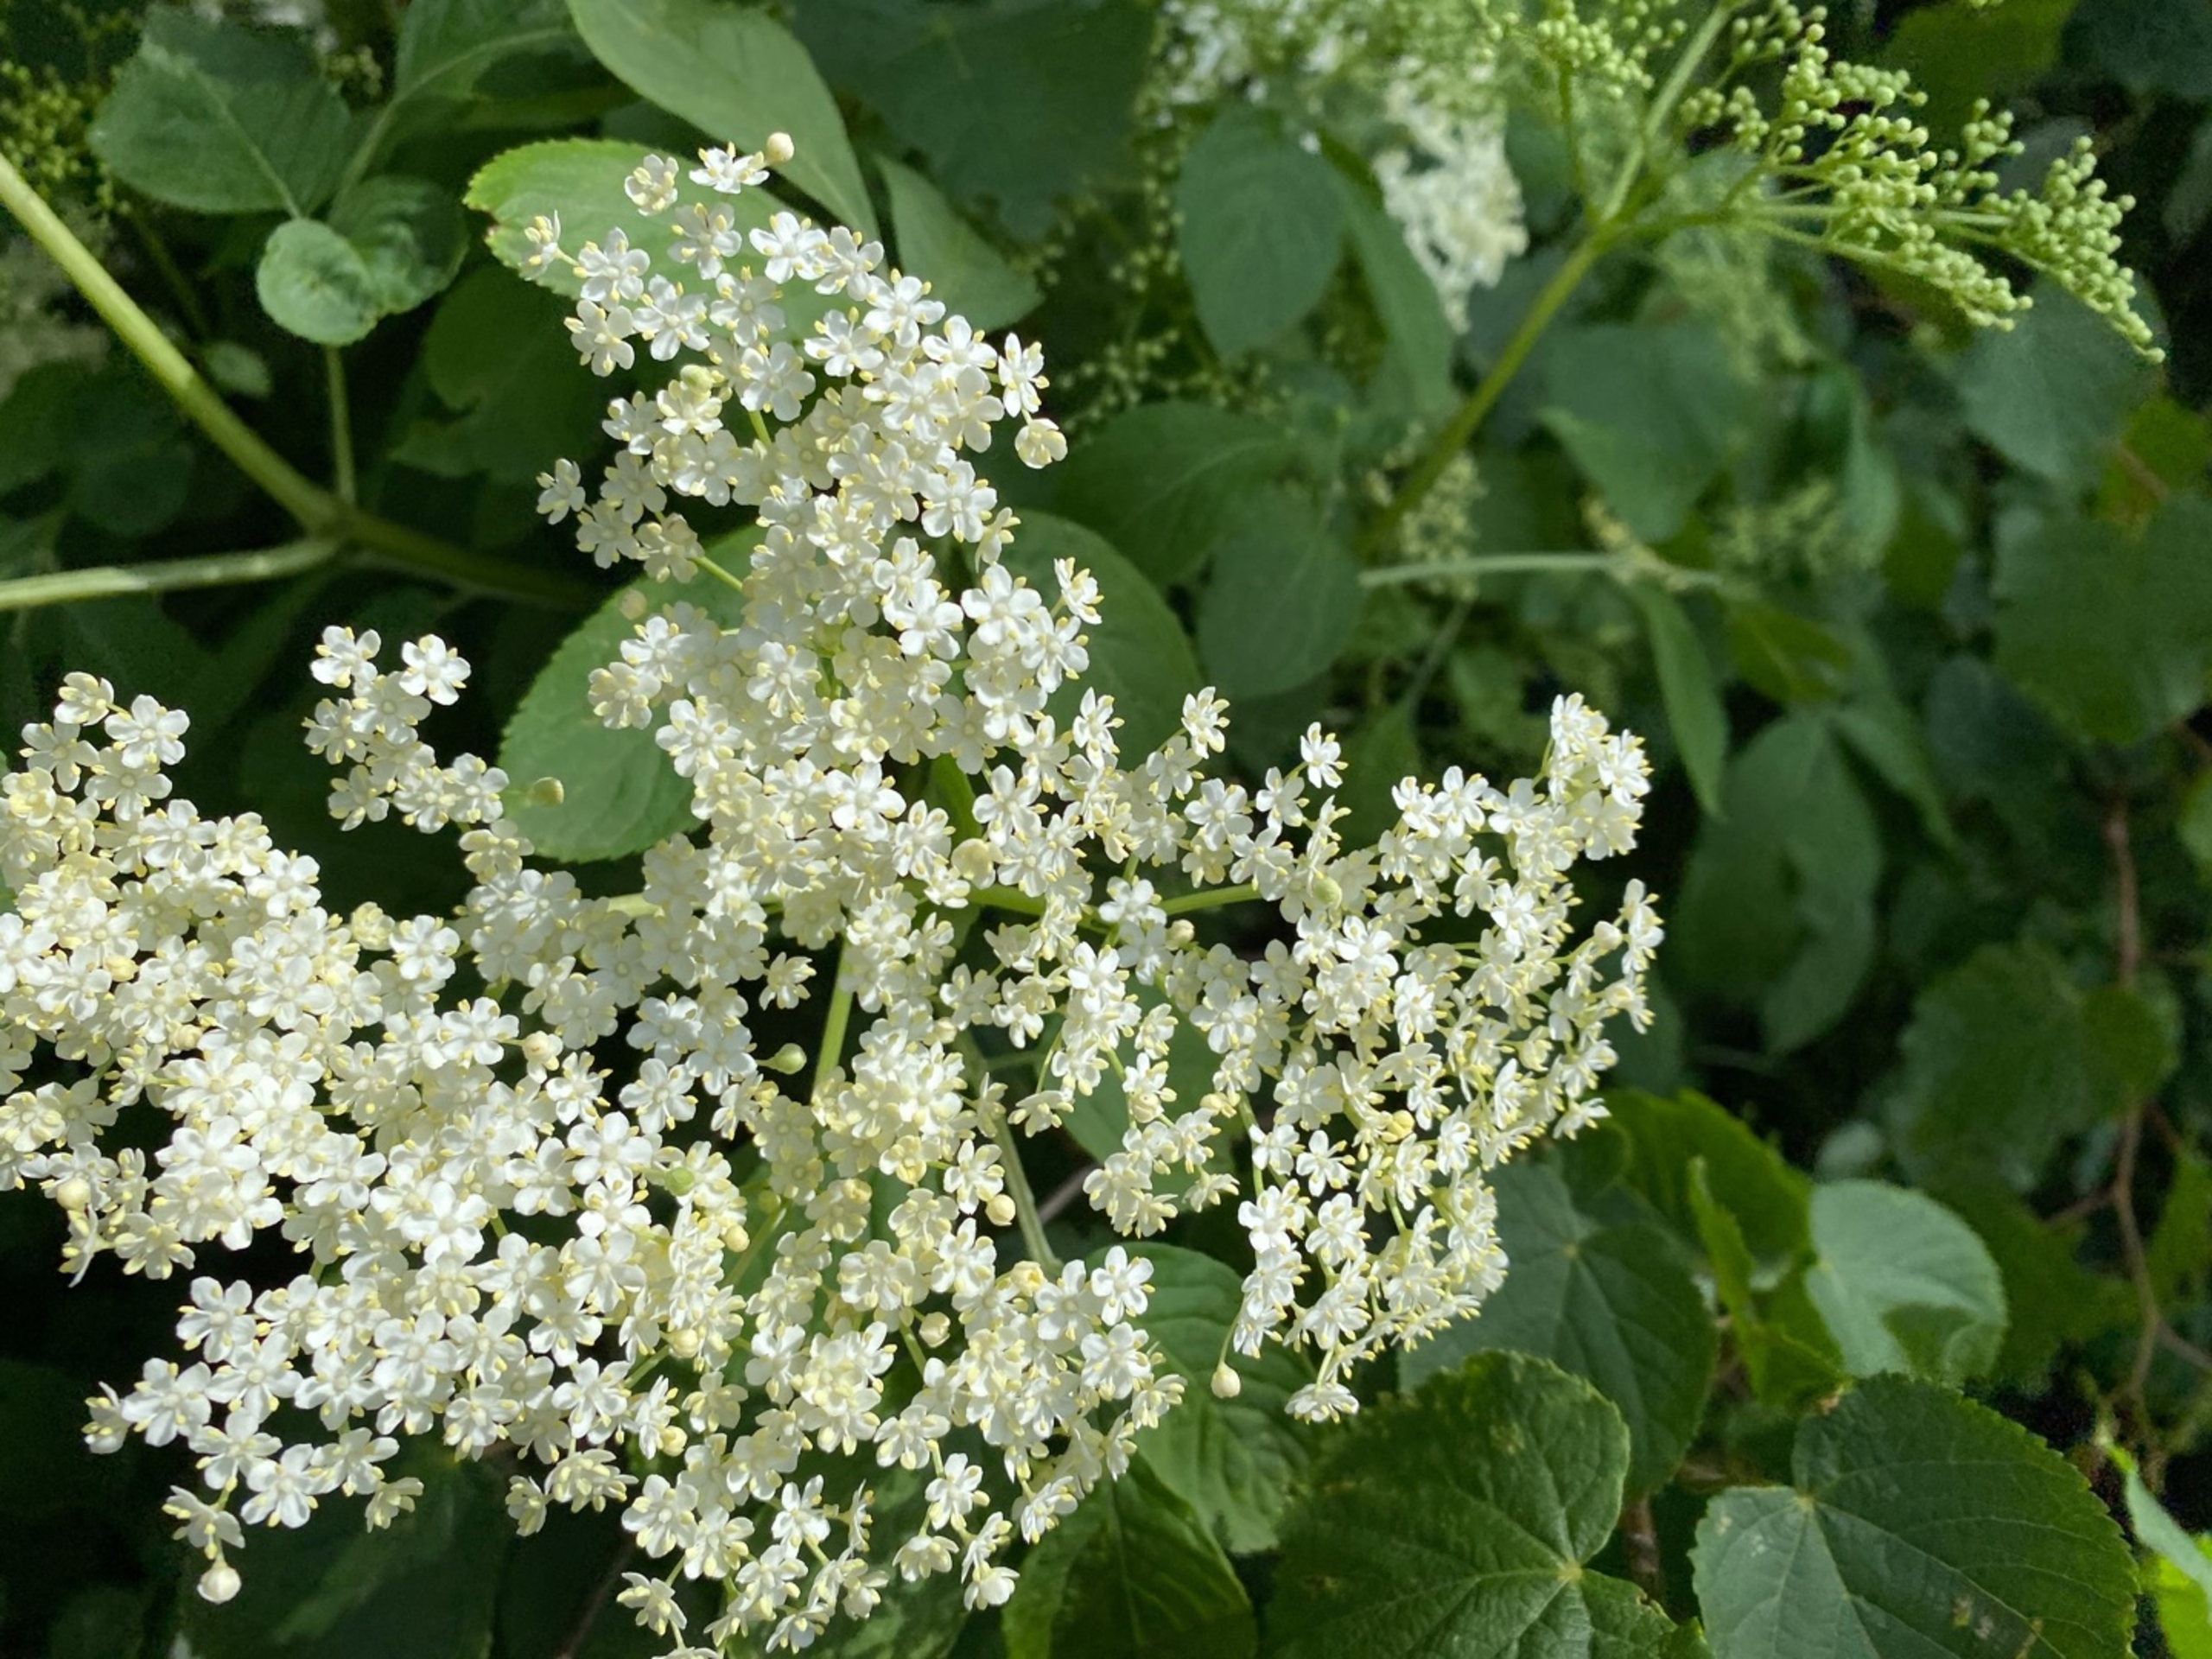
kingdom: Plantae
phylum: Tracheophyta
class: Magnoliopsida
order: Dipsacales
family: Viburnaceae
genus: Sambucus
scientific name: Sambucus nigra
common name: Almindelig hyld
